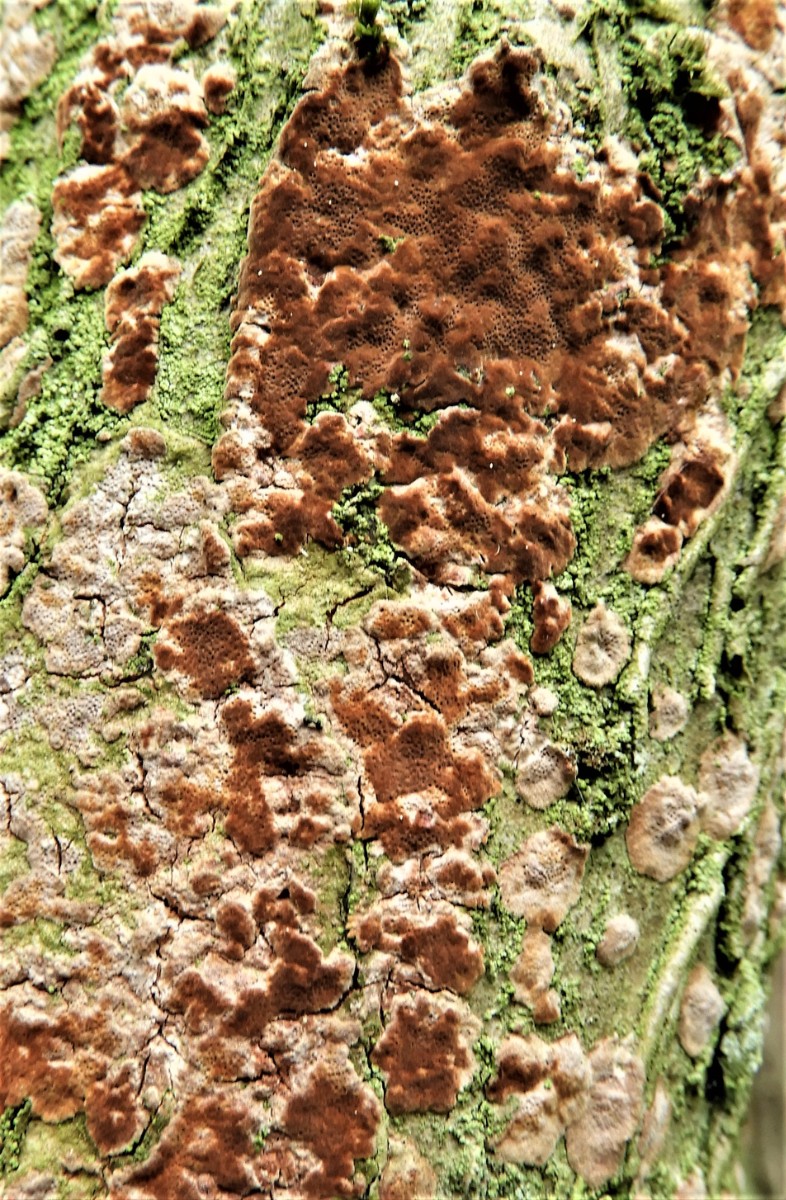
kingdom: Fungi
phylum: Basidiomycota
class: Agaricomycetes
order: Hymenochaetales
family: Hymenochaetaceae
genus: Fuscoporia
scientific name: Fuscoporia ferrea
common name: skorpe-ildporesvamp
